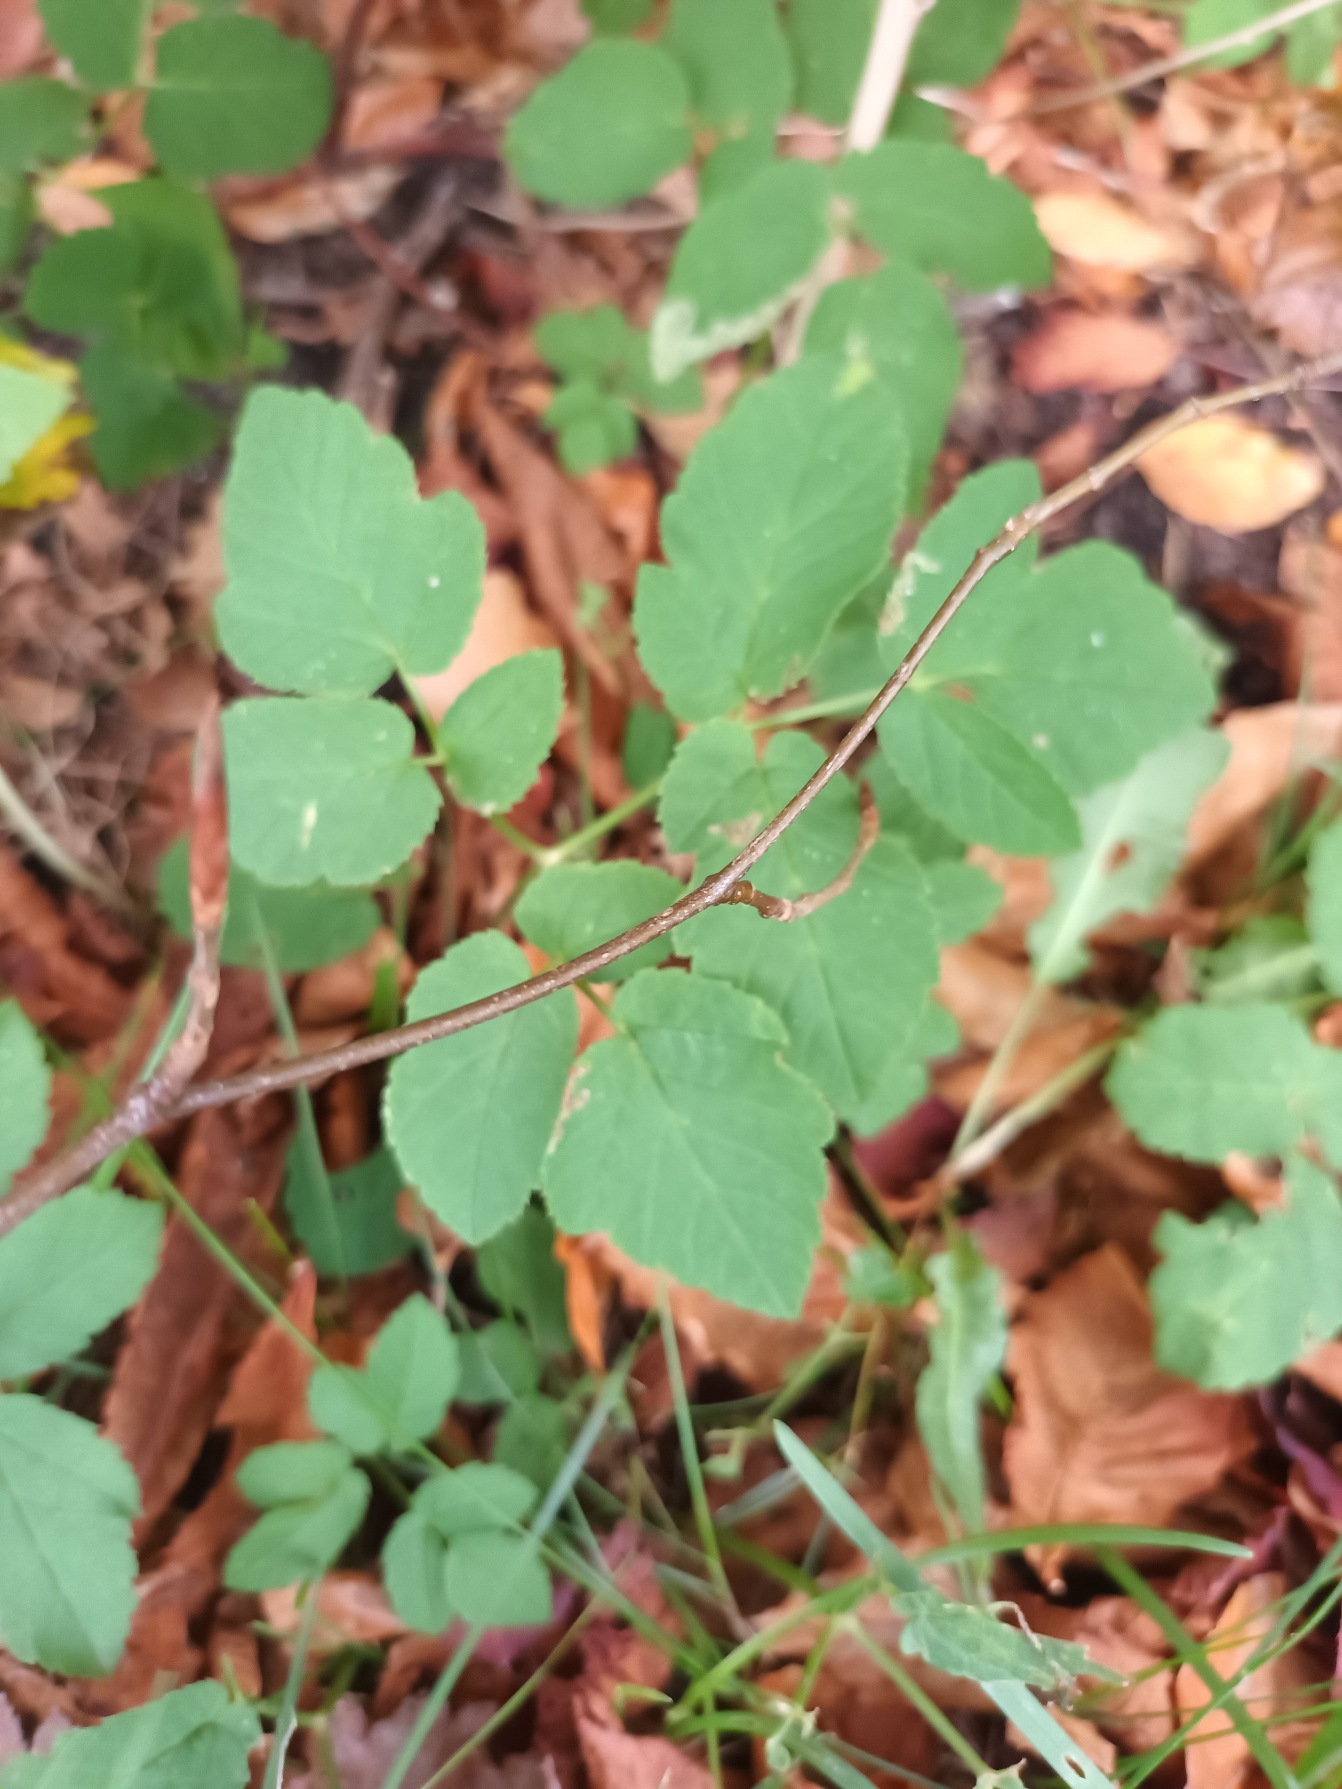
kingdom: Plantae
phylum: Tracheophyta
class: Magnoliopsida
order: Apiales
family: Apiaceae
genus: Aegopodium
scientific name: Aegopodium podagraria
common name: Skvalderkål
